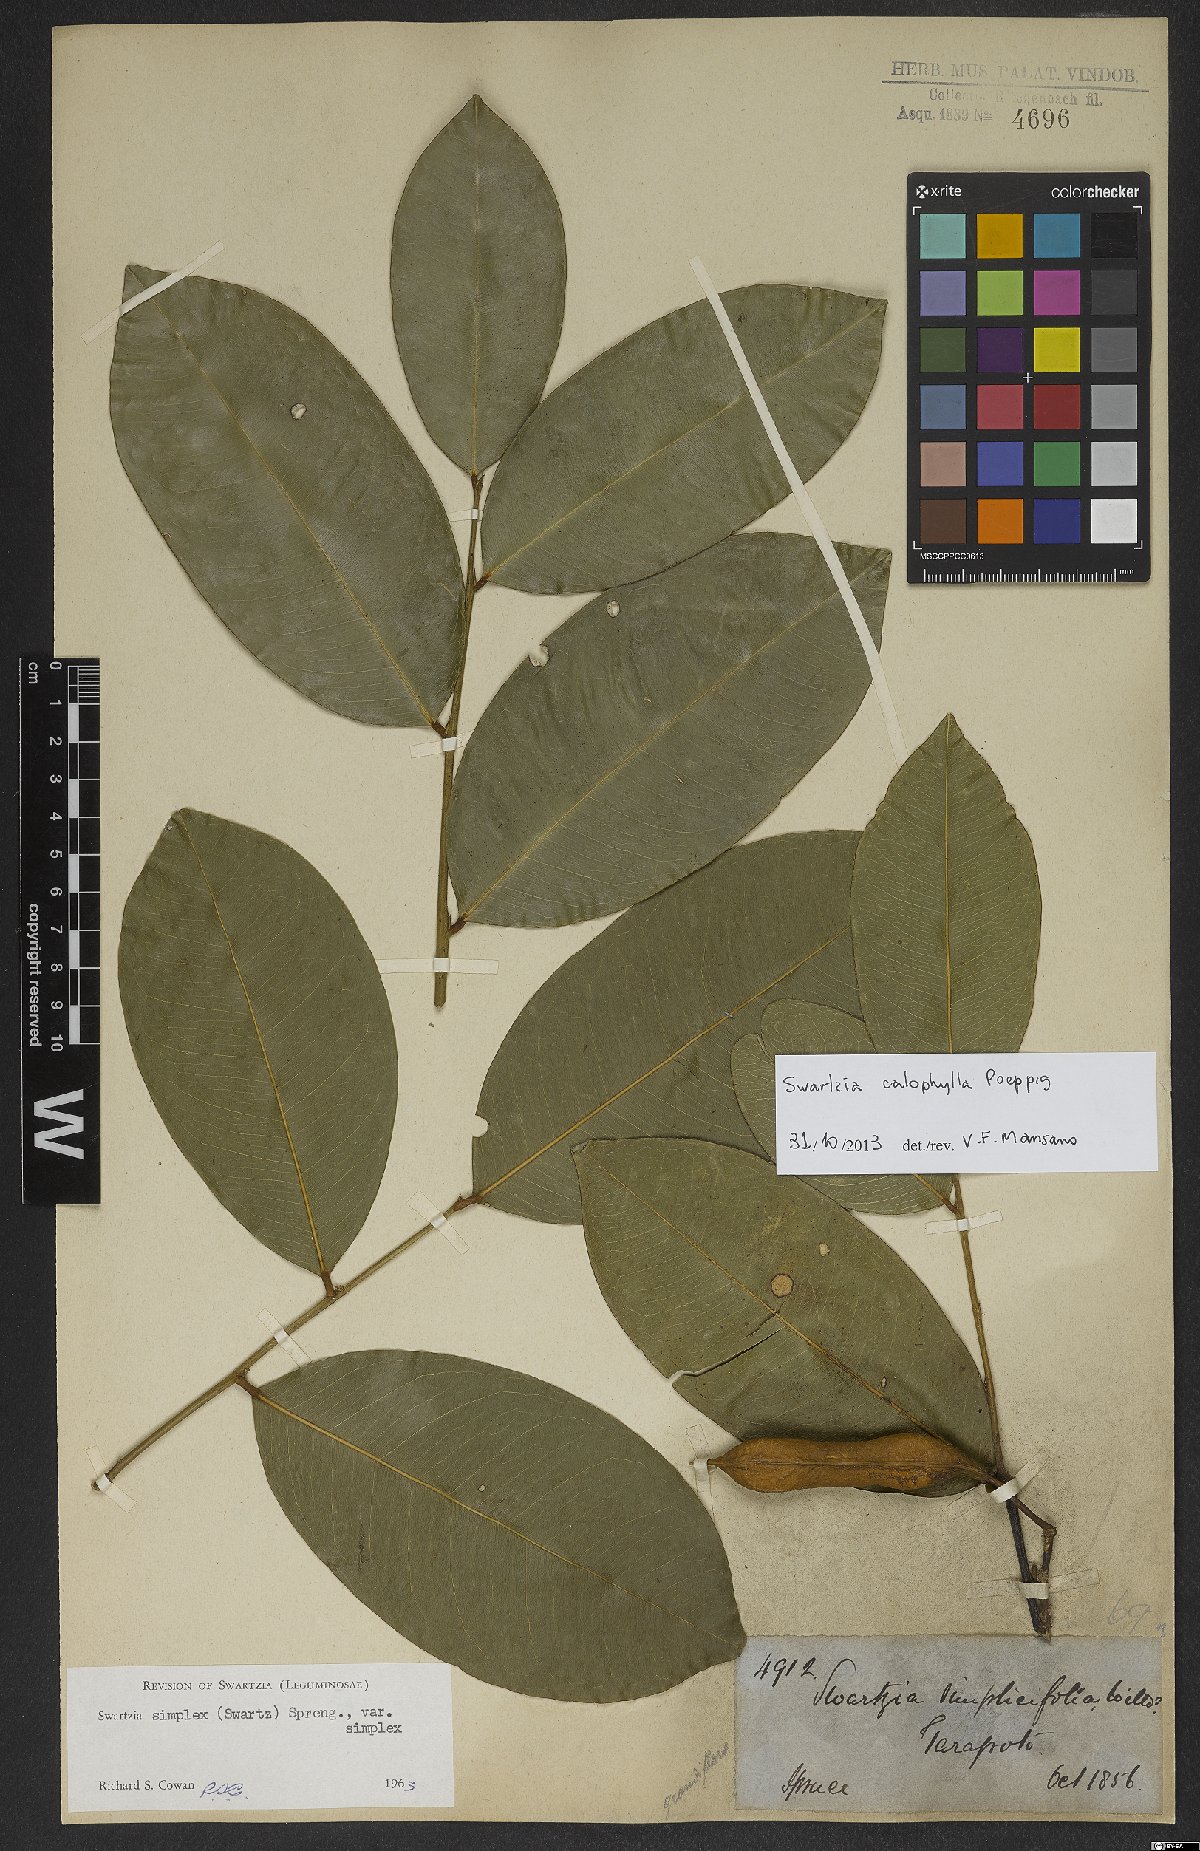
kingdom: Plantae
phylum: Tracheophyta
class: Magnoliopsida
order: Fabales
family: Fabaceae
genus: Swartzia
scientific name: Swartzia calophylla
